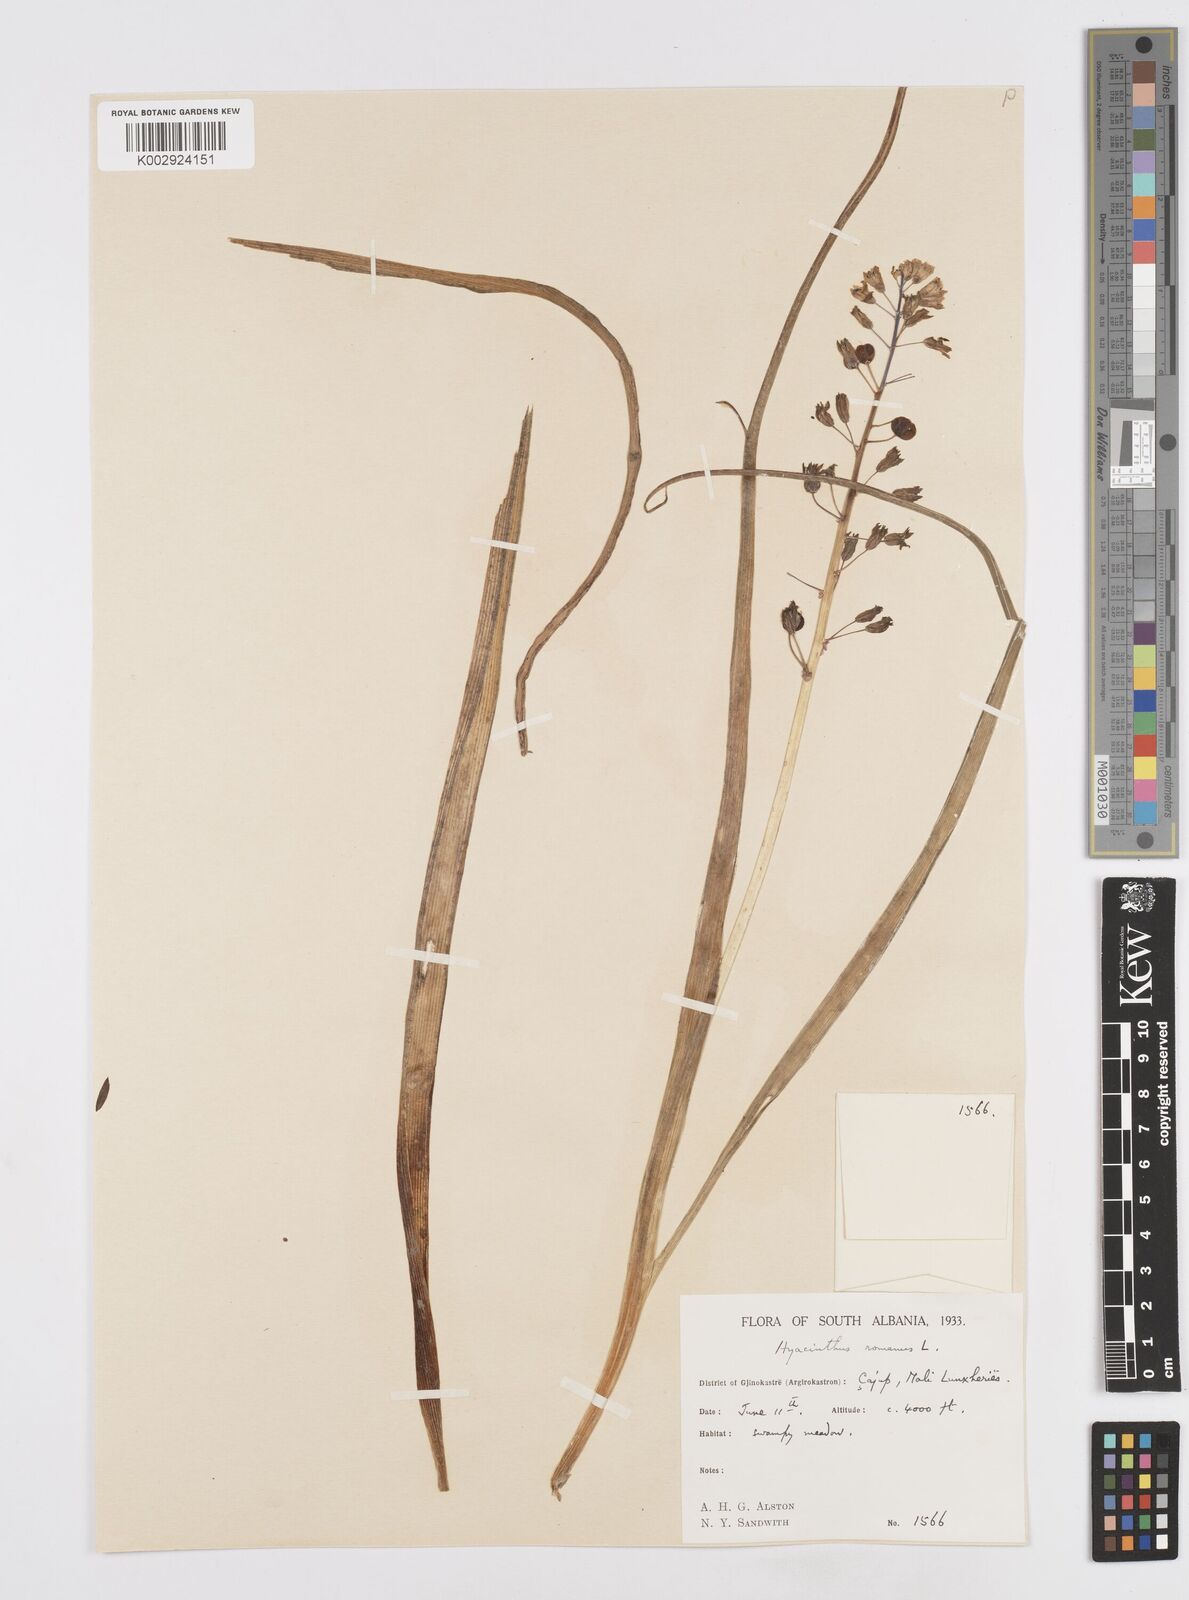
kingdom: Plantae
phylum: Tracheophyta
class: Liliopsida
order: Asparagales
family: Asparagaceae
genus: Bellevalia
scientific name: Bellevalia
